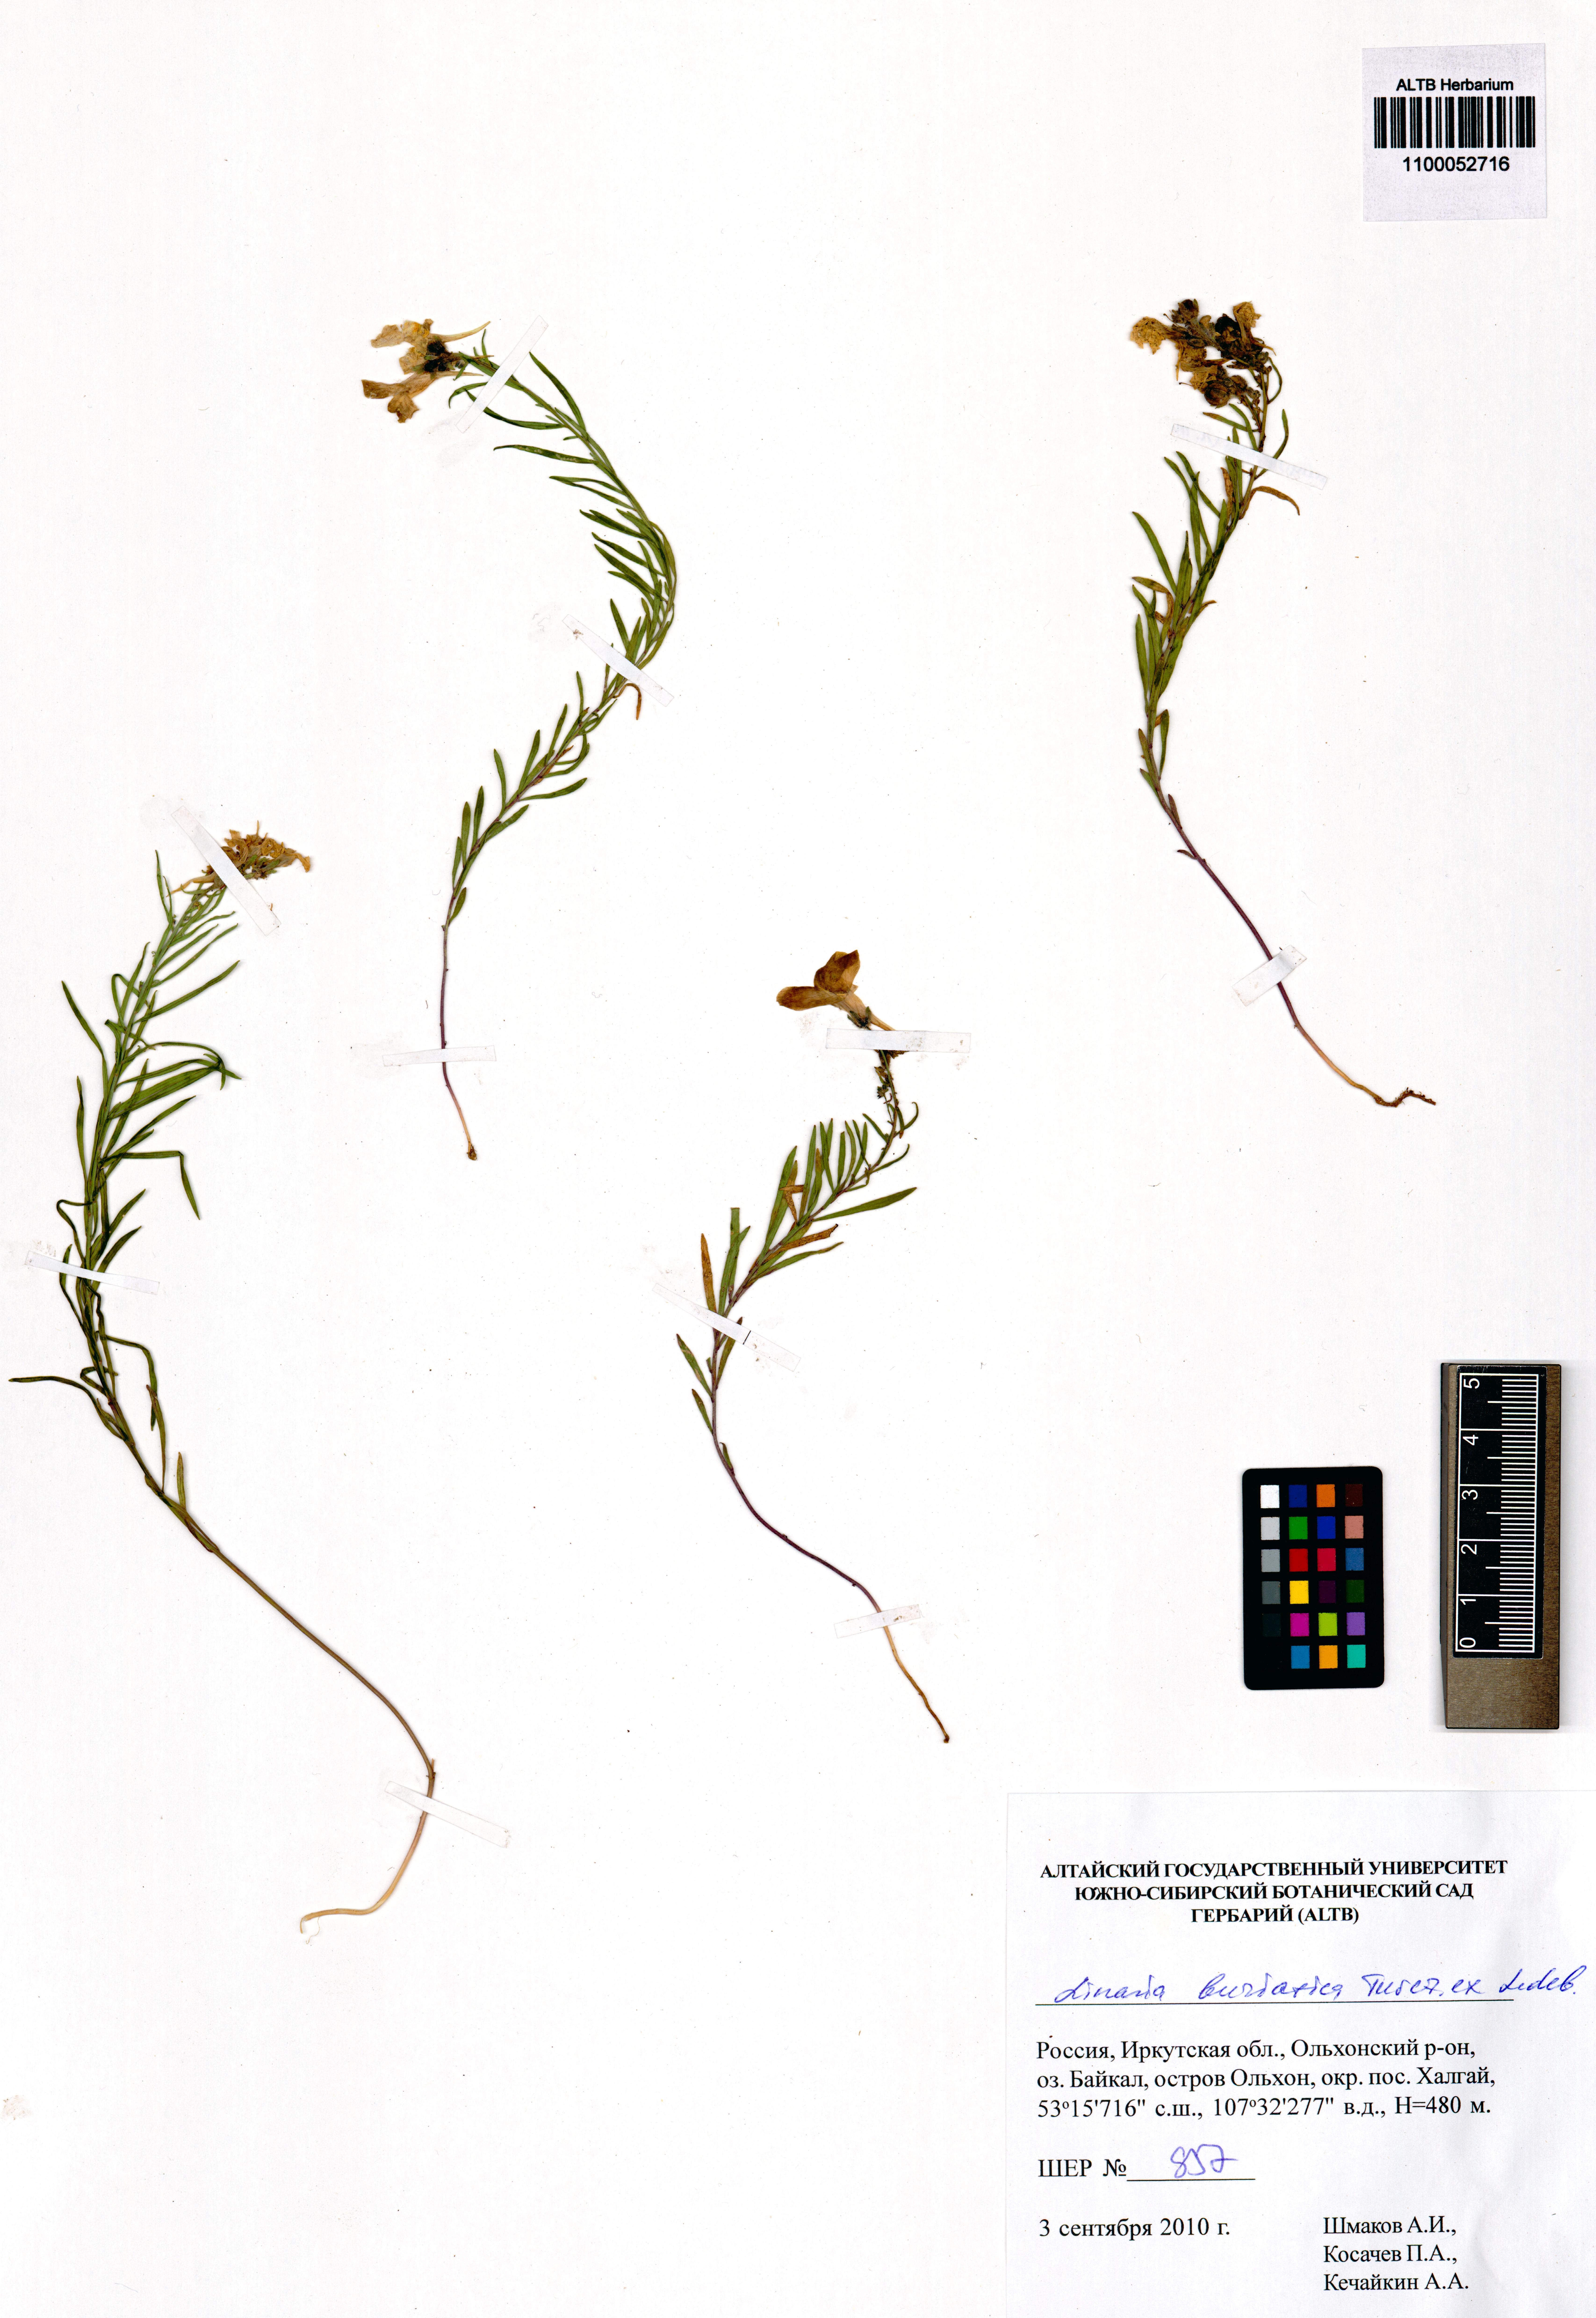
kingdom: Plantae
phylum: Tracheophyta
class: Magnoliopsida
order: Lamiales
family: Plantaginaceae
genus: Linaria
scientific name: Linaria buriatica
